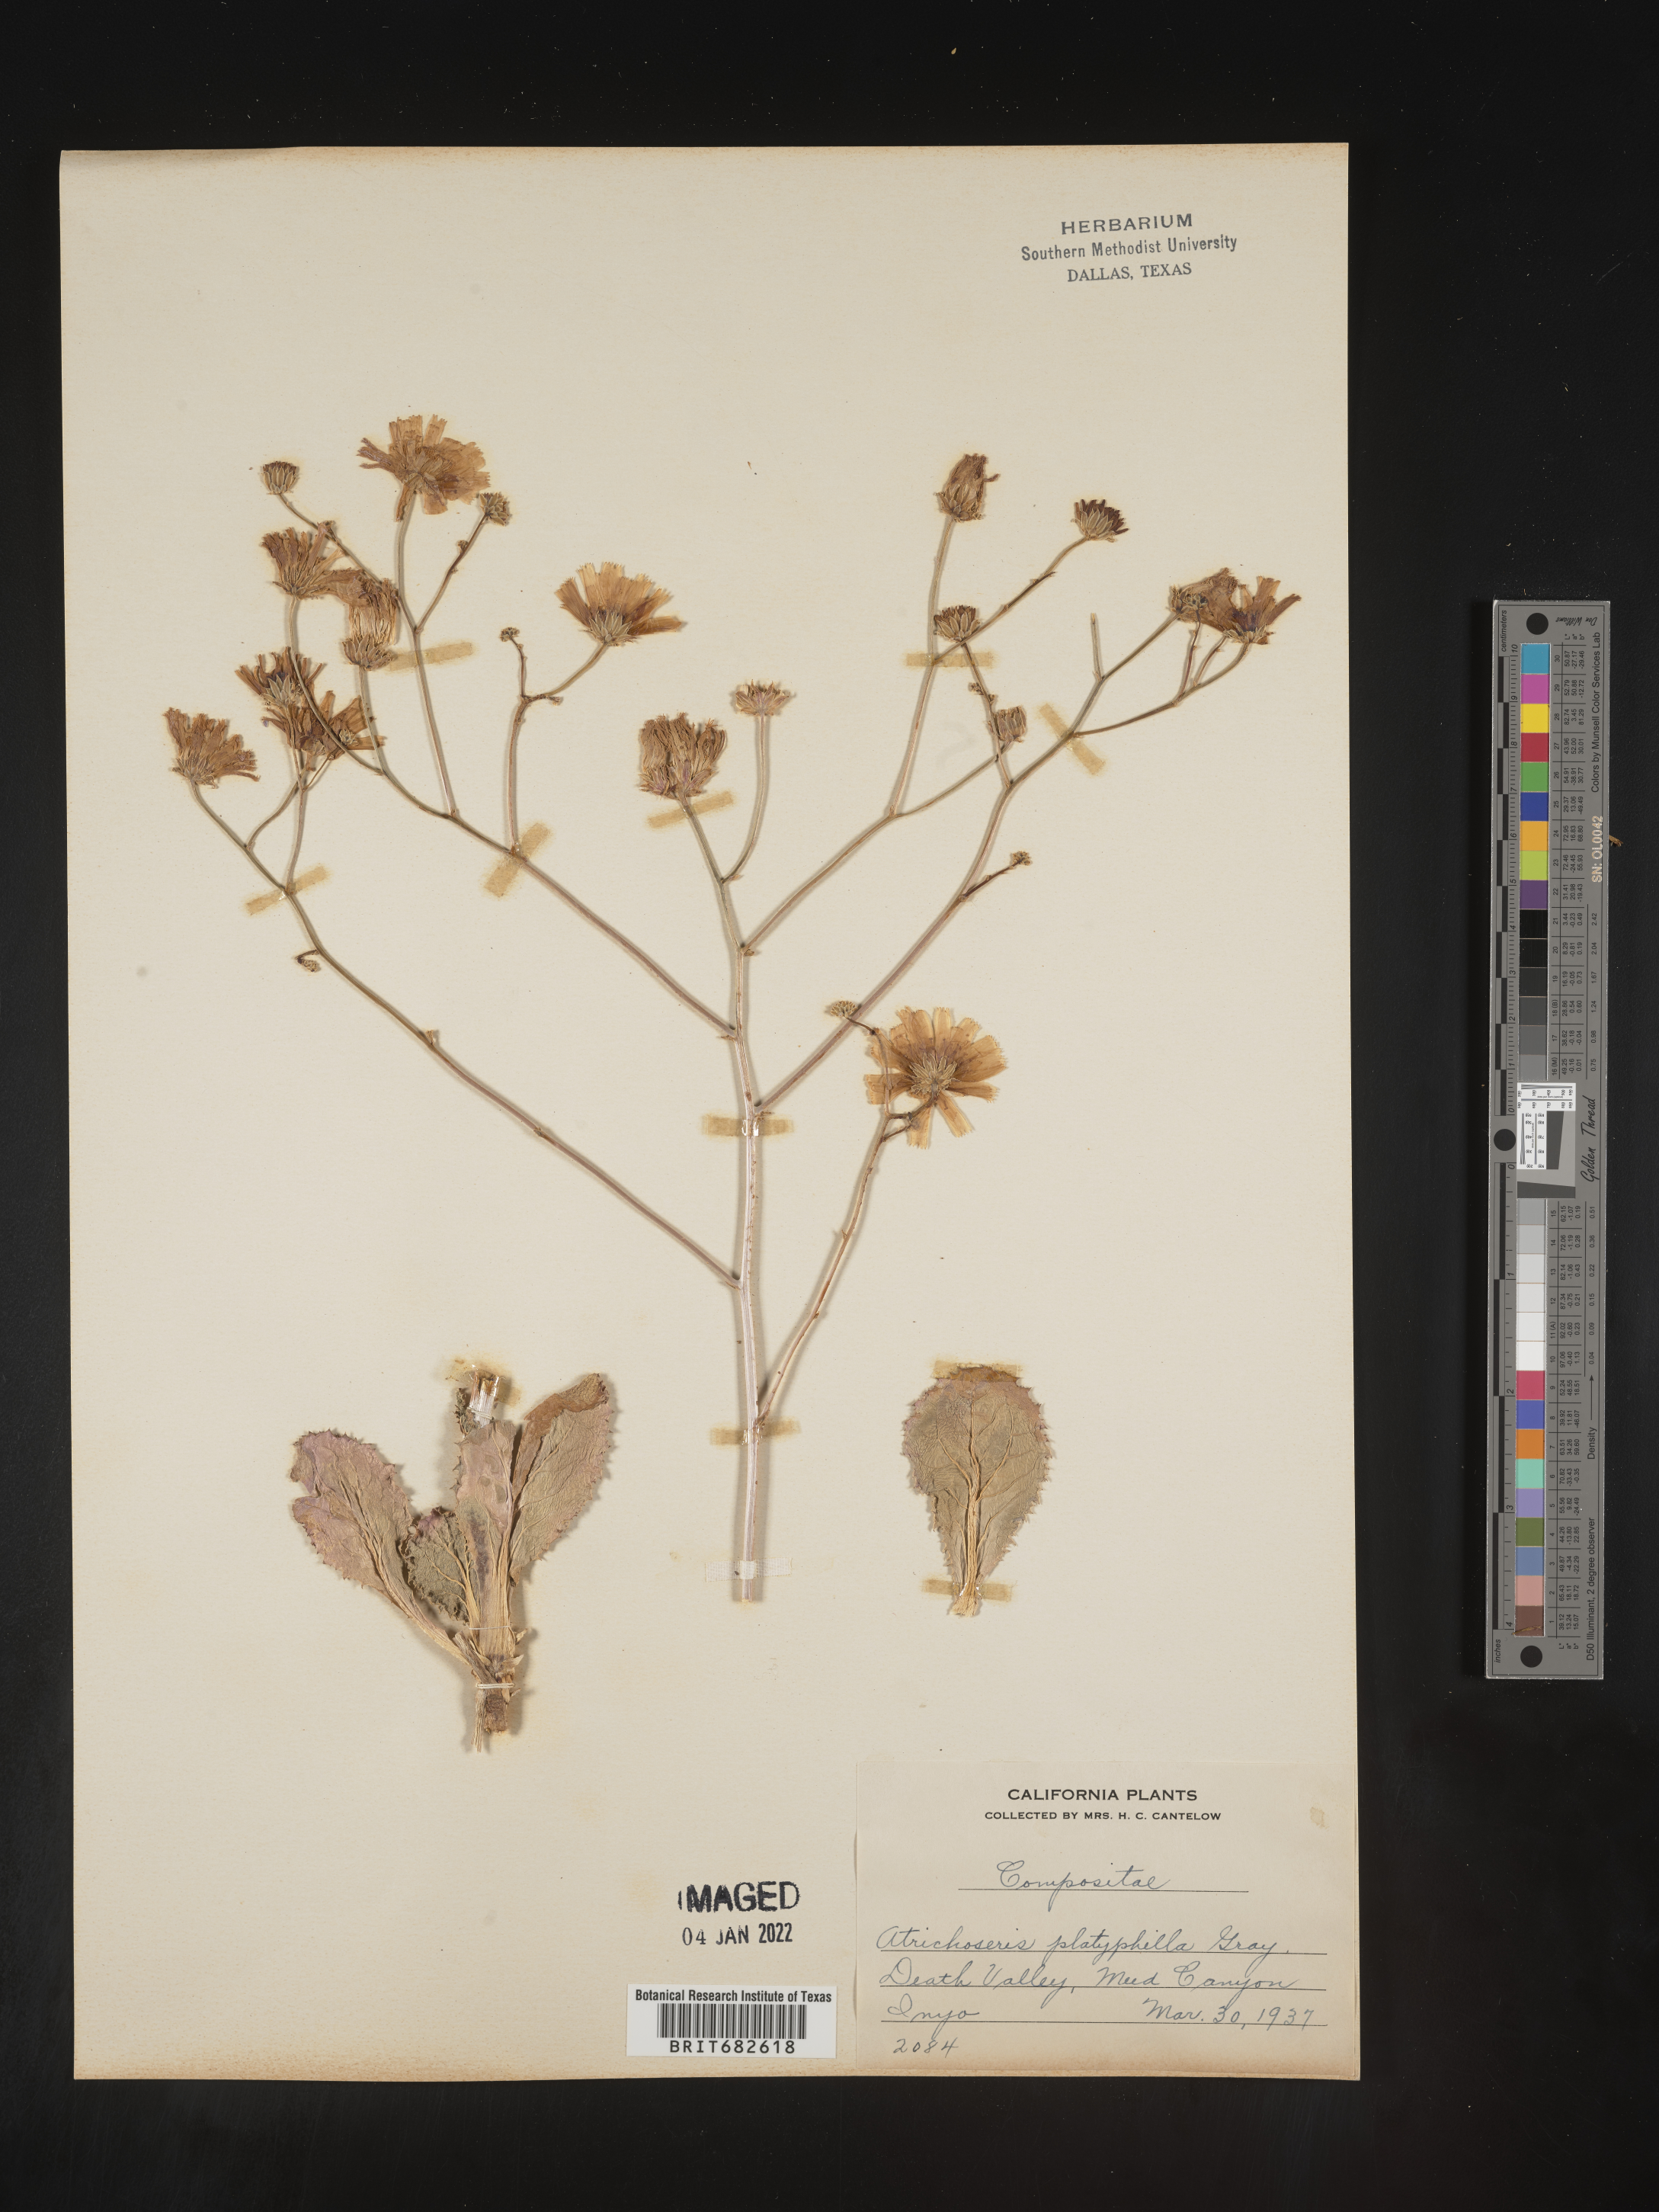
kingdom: Plantae
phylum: Tracheophyta
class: Magnoliopsida
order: Asterales
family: Asteraceae
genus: Atrichoseris
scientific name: Atrichoseris
